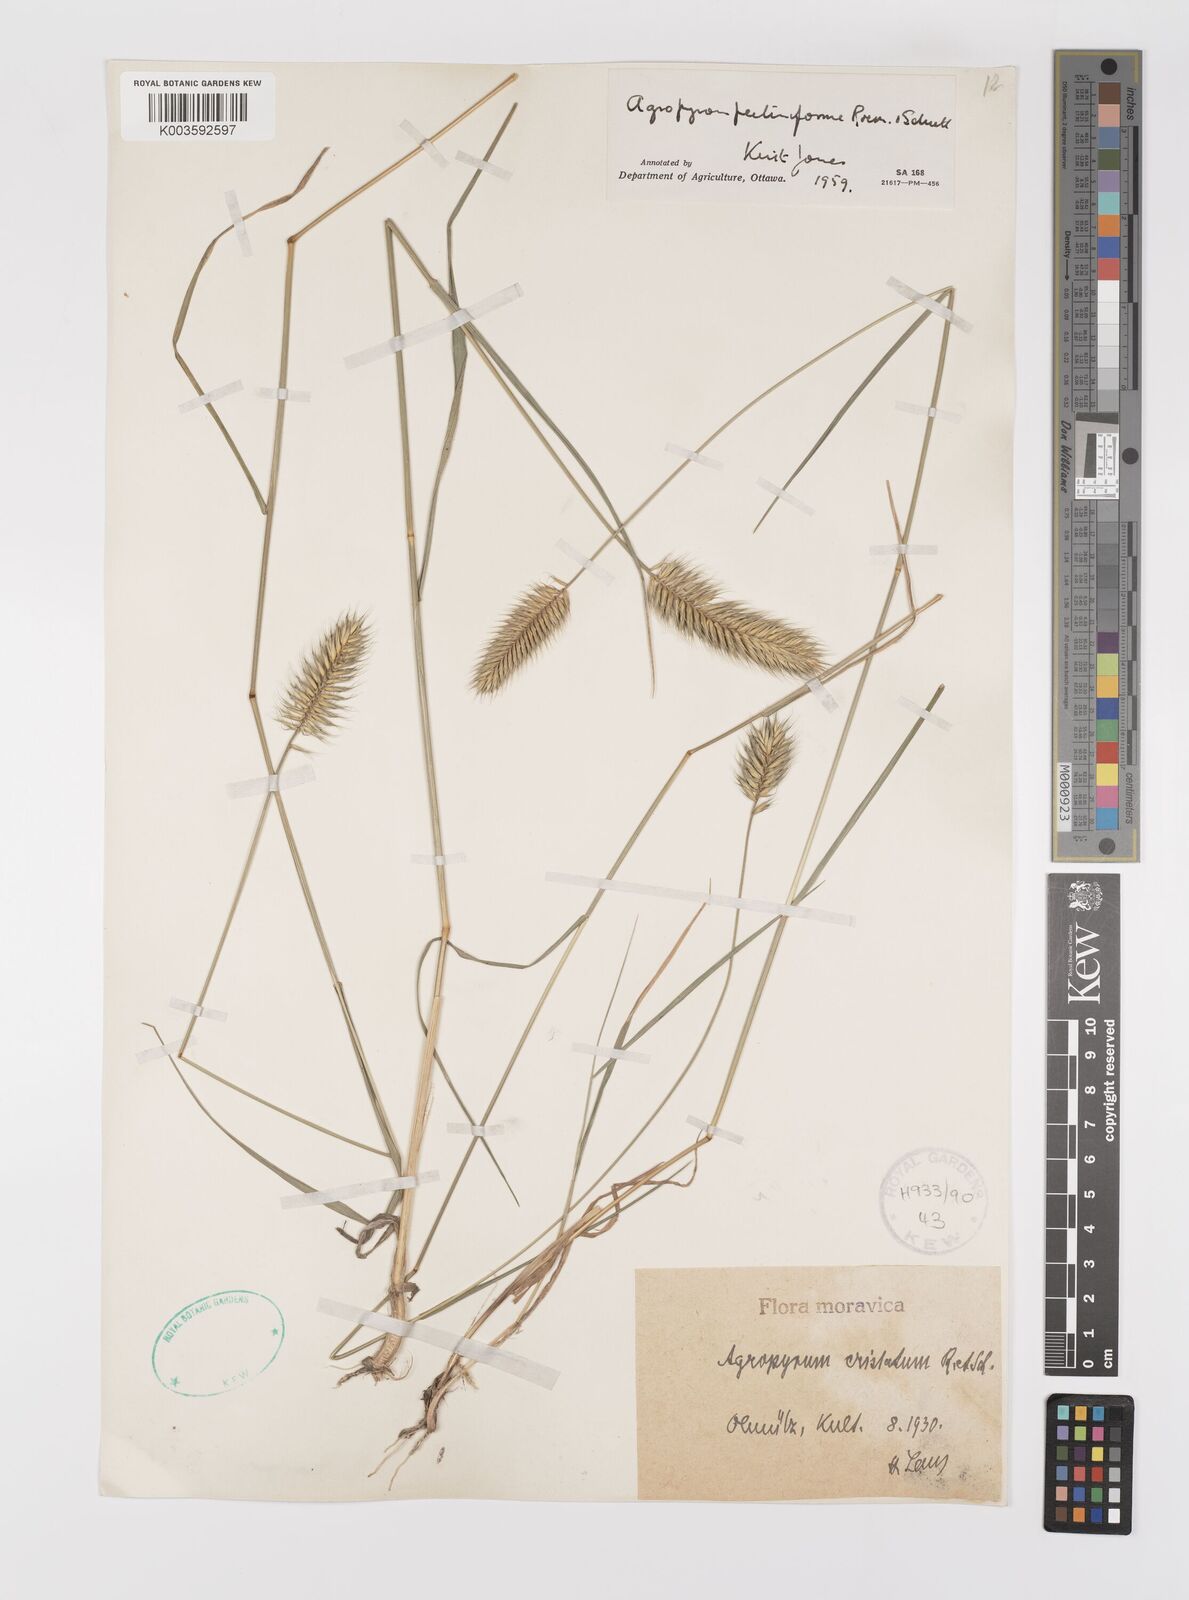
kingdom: Plantae
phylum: Tracheophyta
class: Liliopsida
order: Poales
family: Poaceae
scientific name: Poaceae
